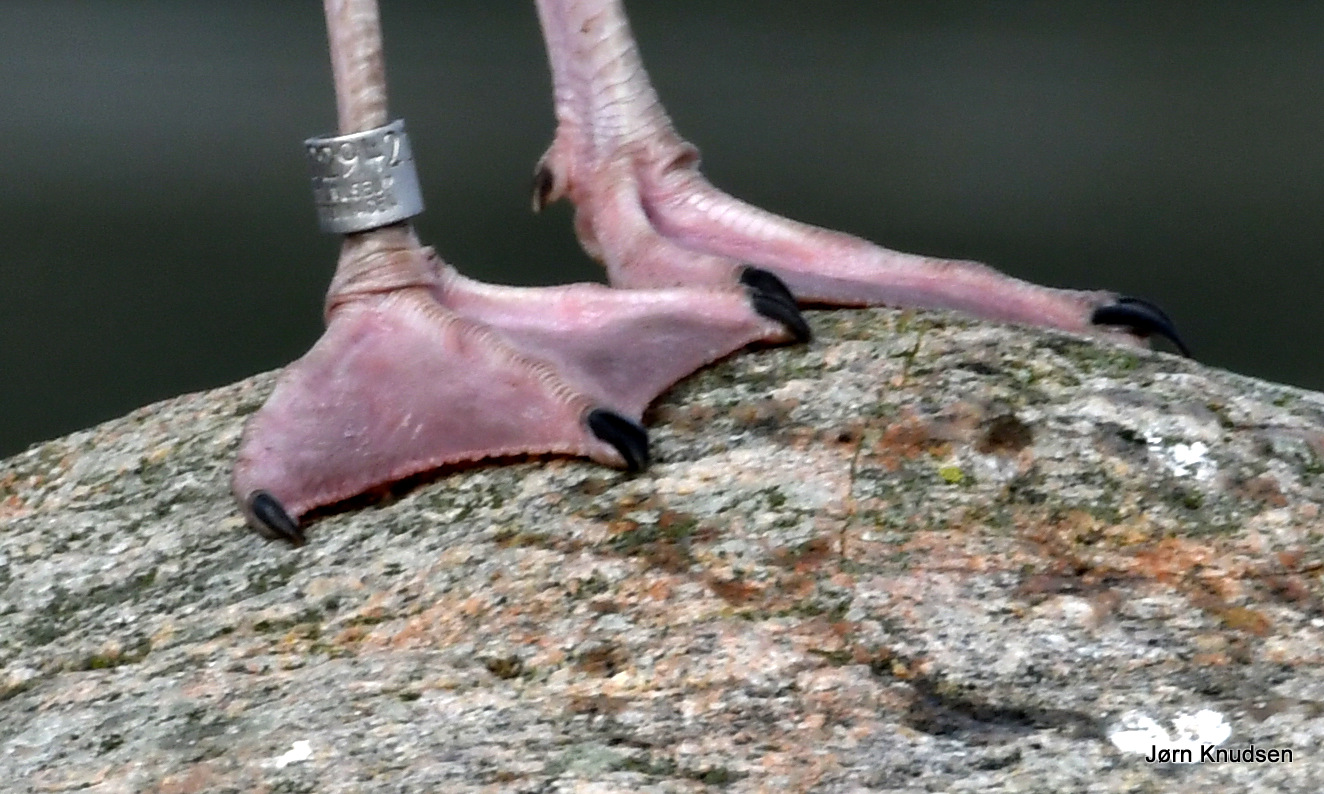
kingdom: Animalia
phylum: Chordata
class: Aves
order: Charadriiformes
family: Laridae
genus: Larus
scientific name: Larus argentatus
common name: Sølvmåge
